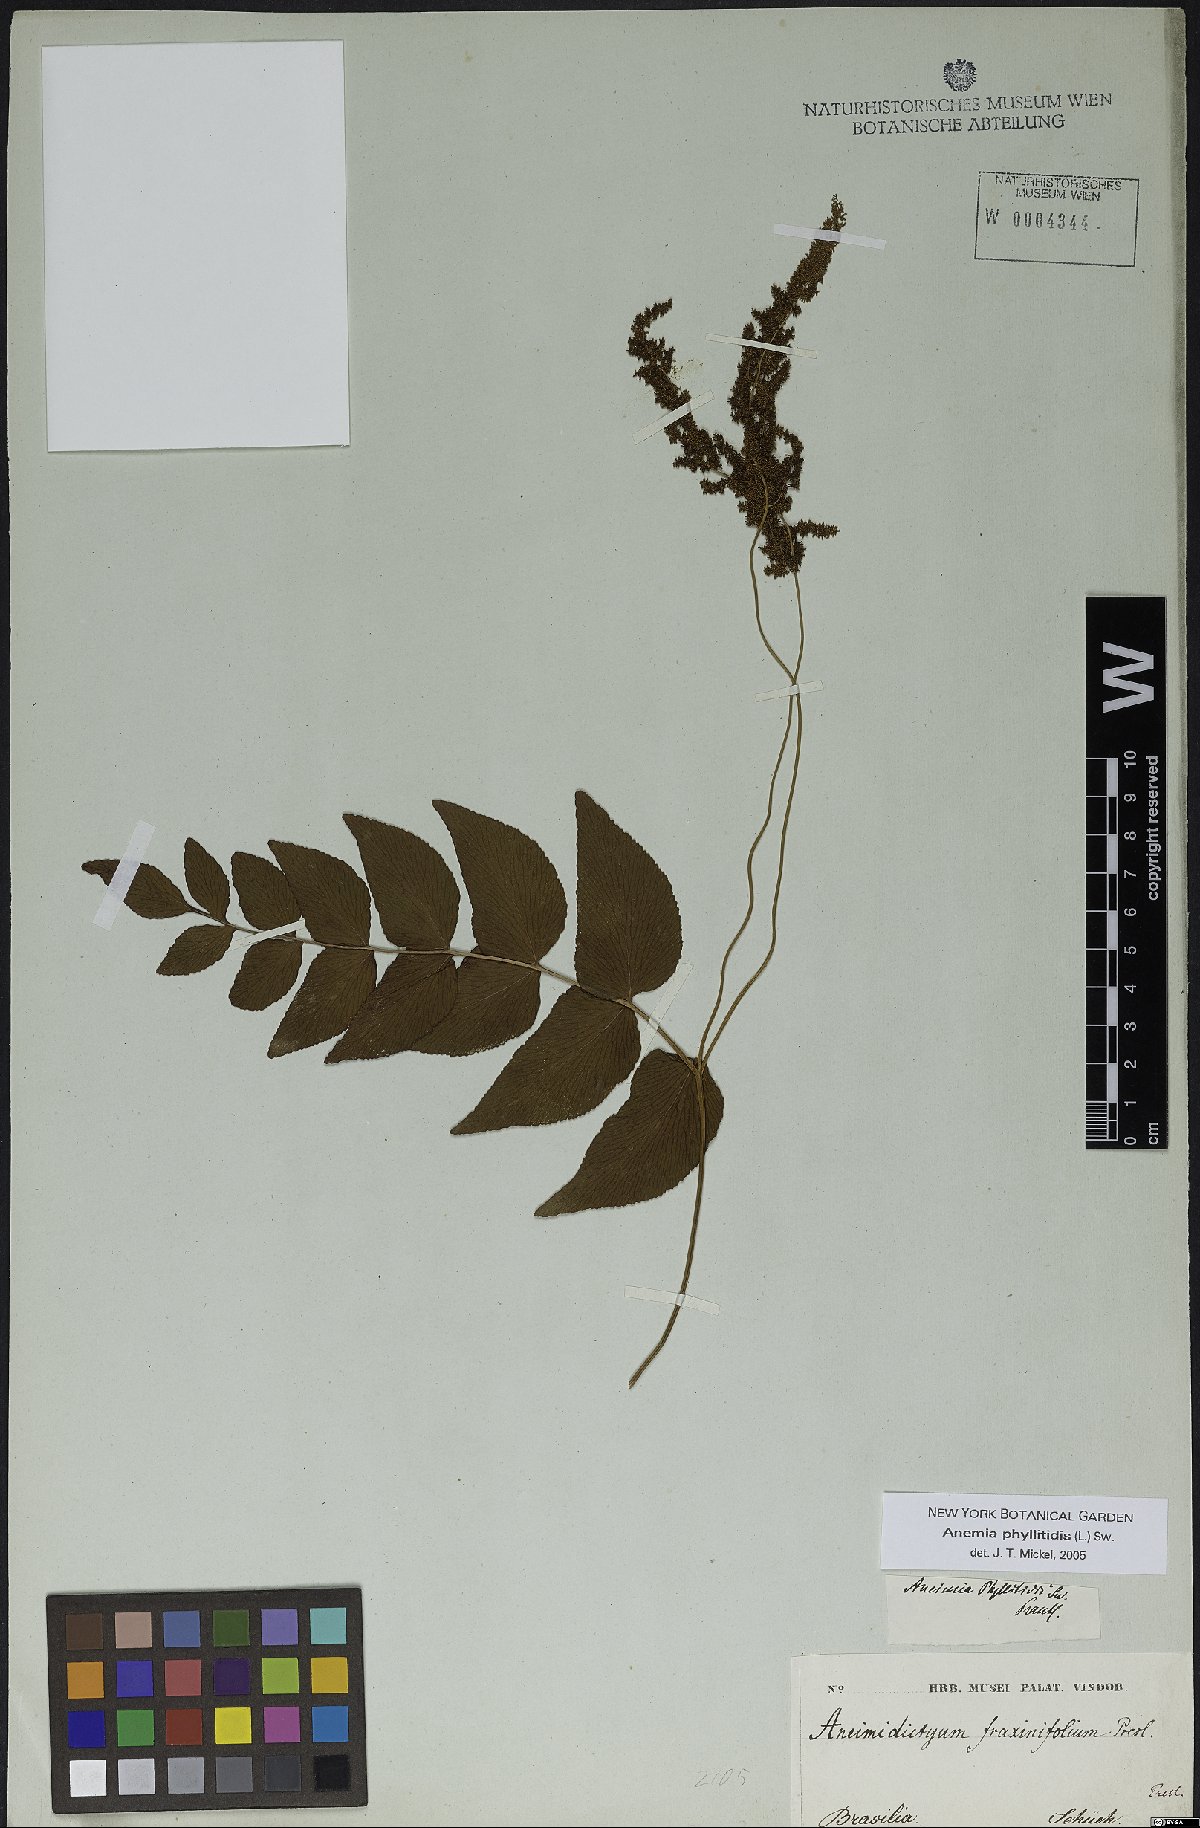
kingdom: Plantae
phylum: Tracheophyta
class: Polypodiopsida
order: Schizaeales
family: Anemiaceae
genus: Anemia
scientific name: Anemia phyllitidis
